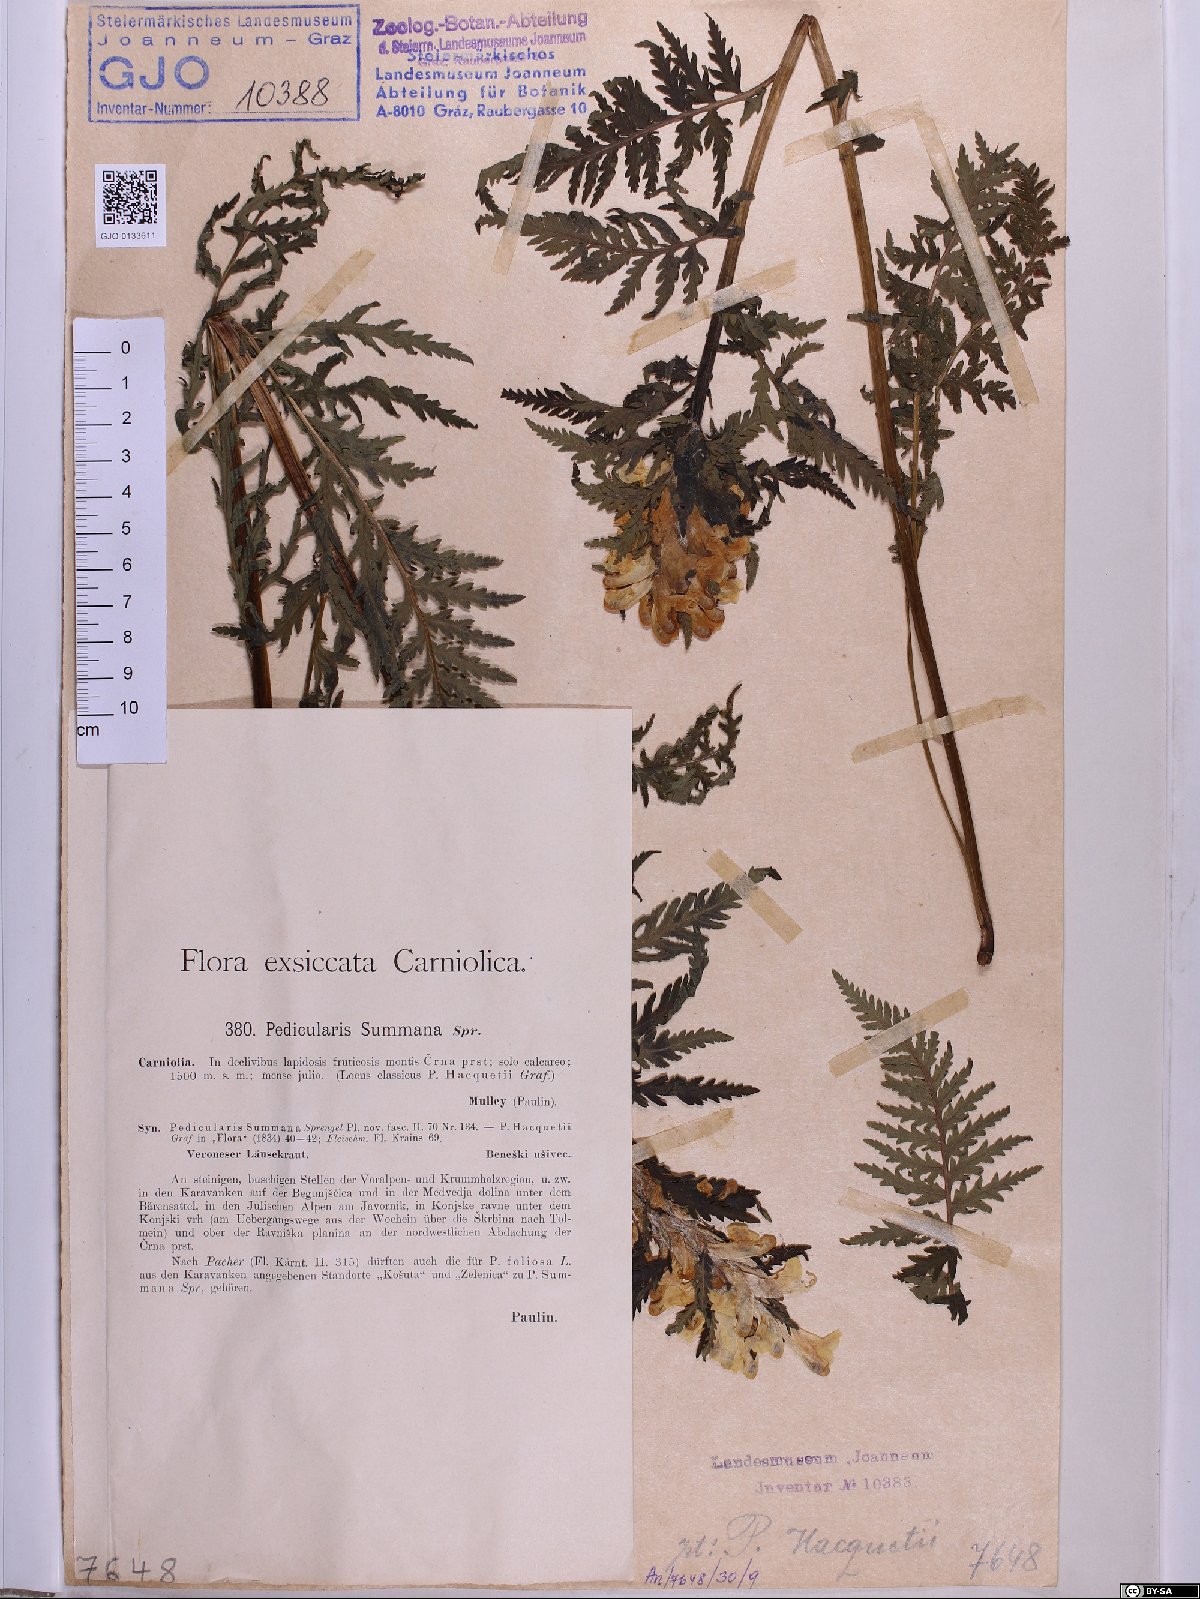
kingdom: Plantae
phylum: Tracheophyta
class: Magnoliopsida
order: Lamiales
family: Scrophulariaceae
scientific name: Scrophulariaceae
